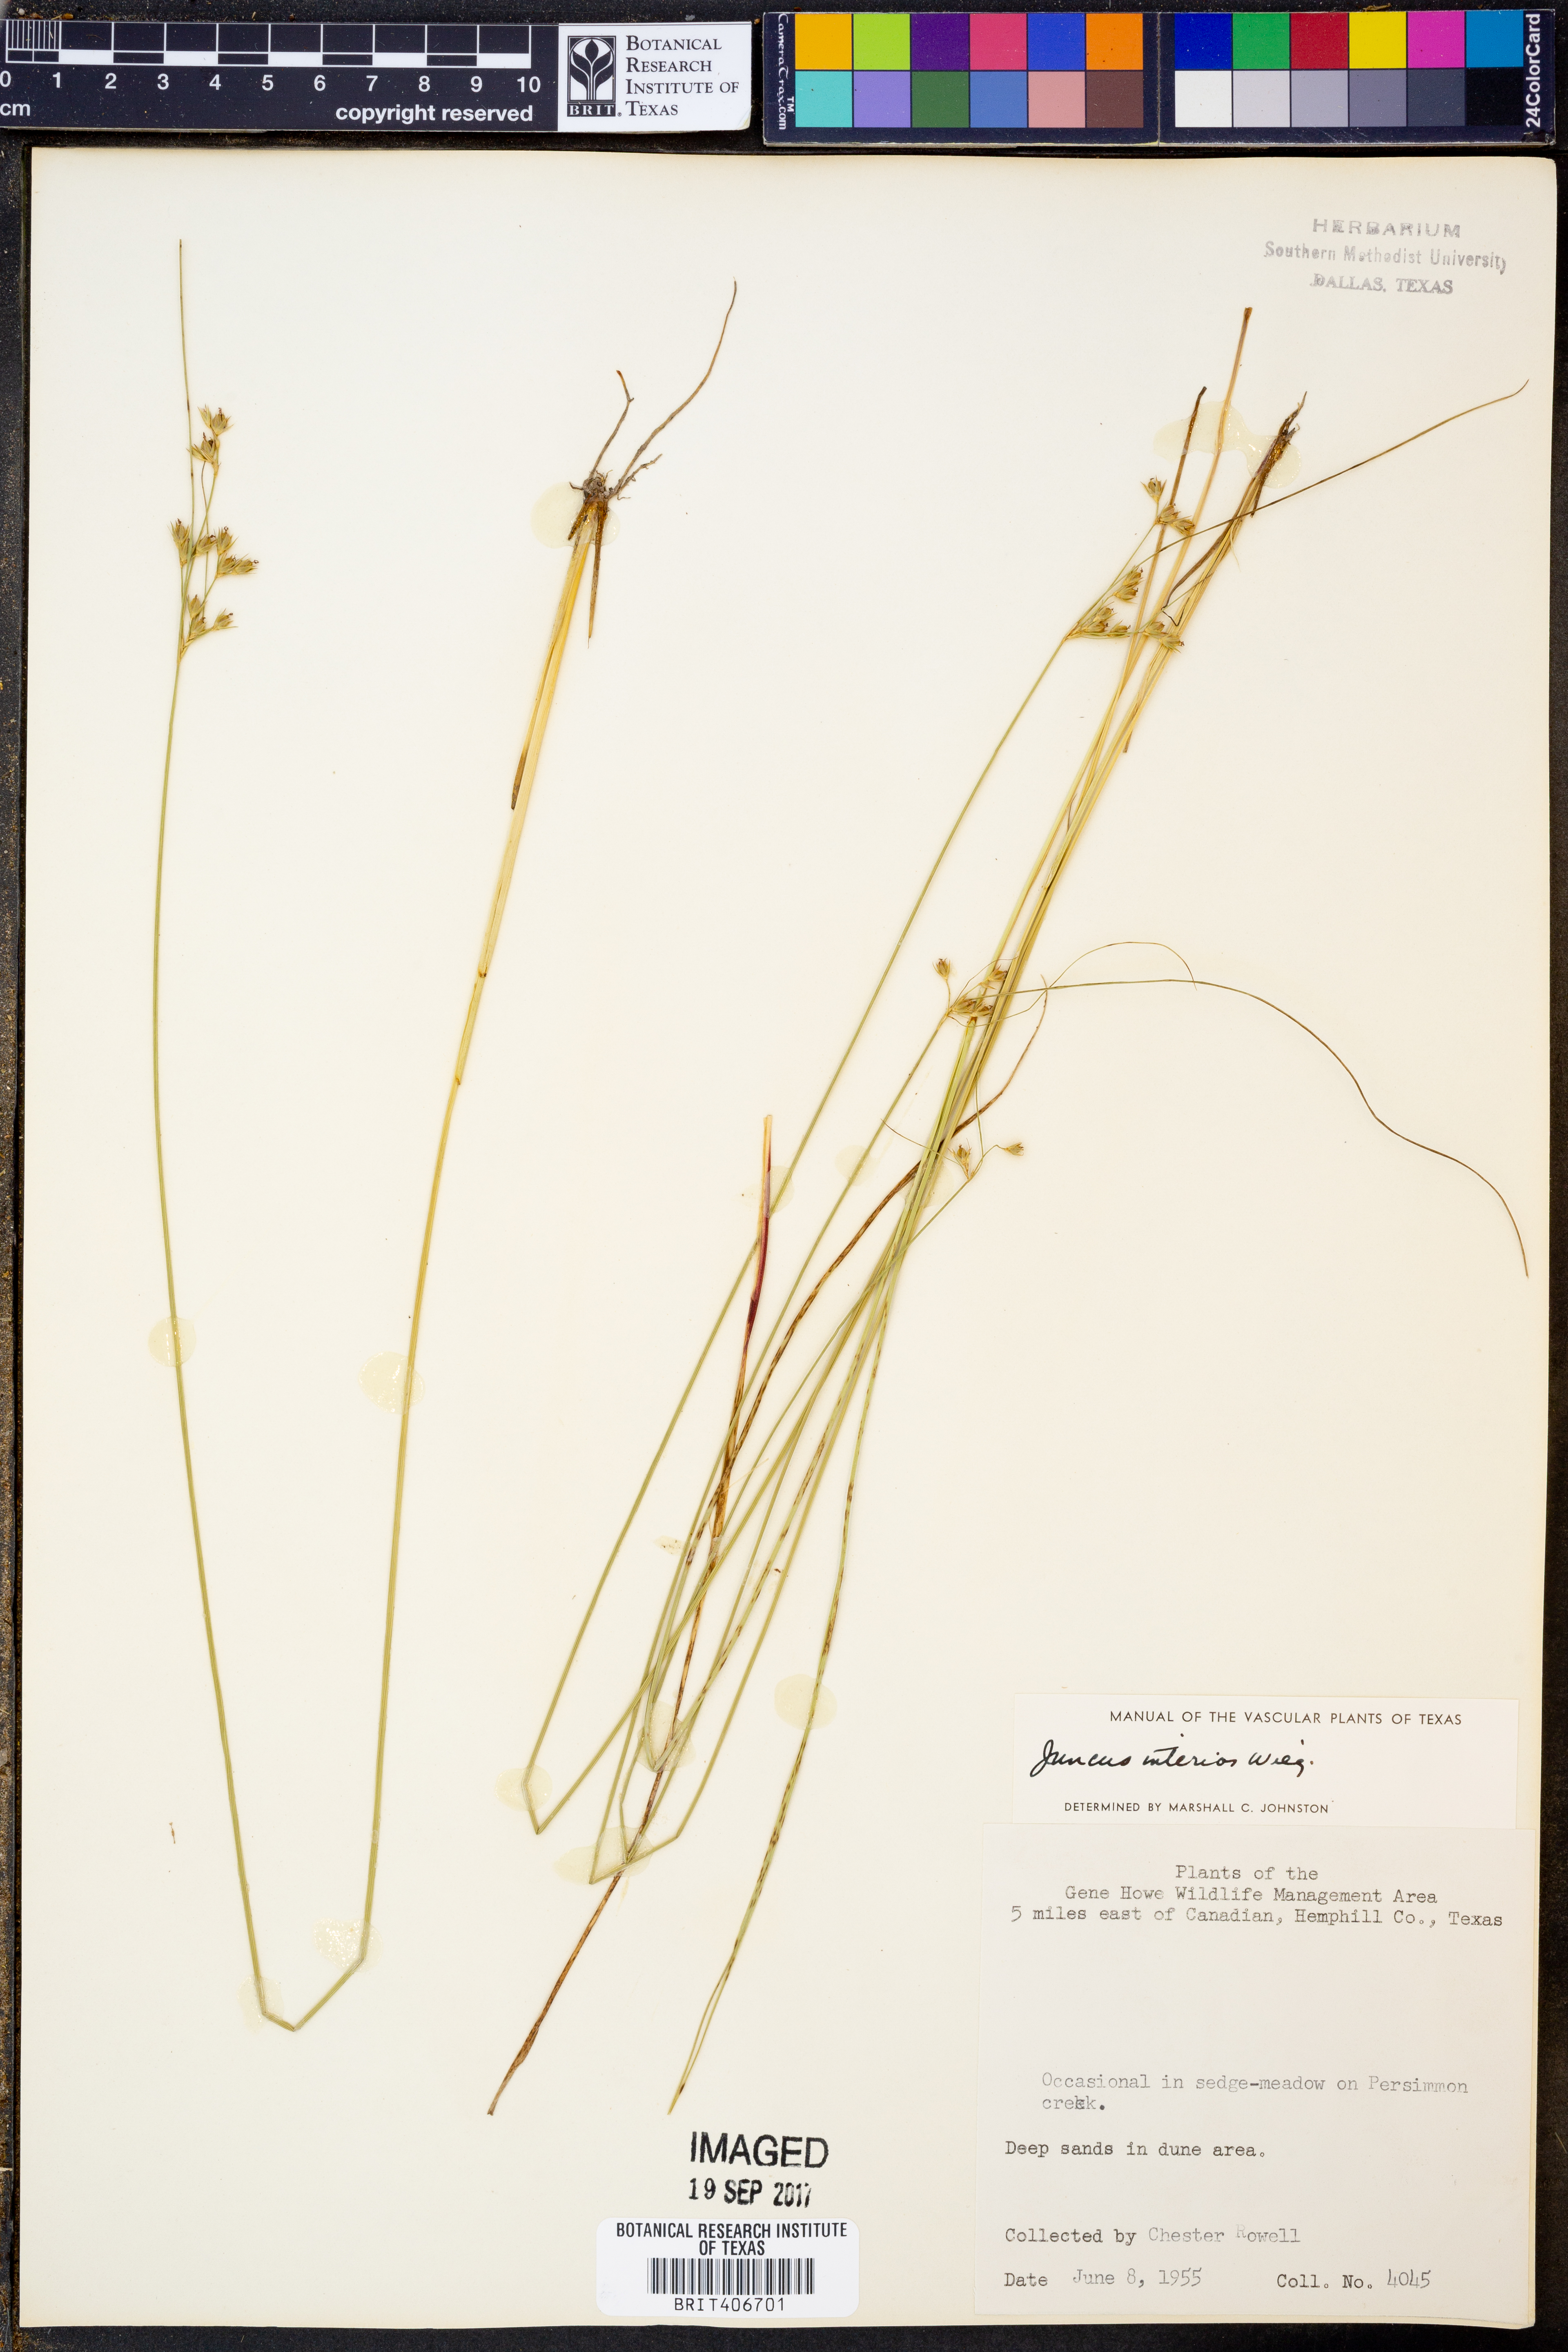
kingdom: Plantae
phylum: Tracheophyta
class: Liliopsida
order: Poales
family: Juncaceae
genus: Juncus
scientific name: Juncus interior
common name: Interior rush
